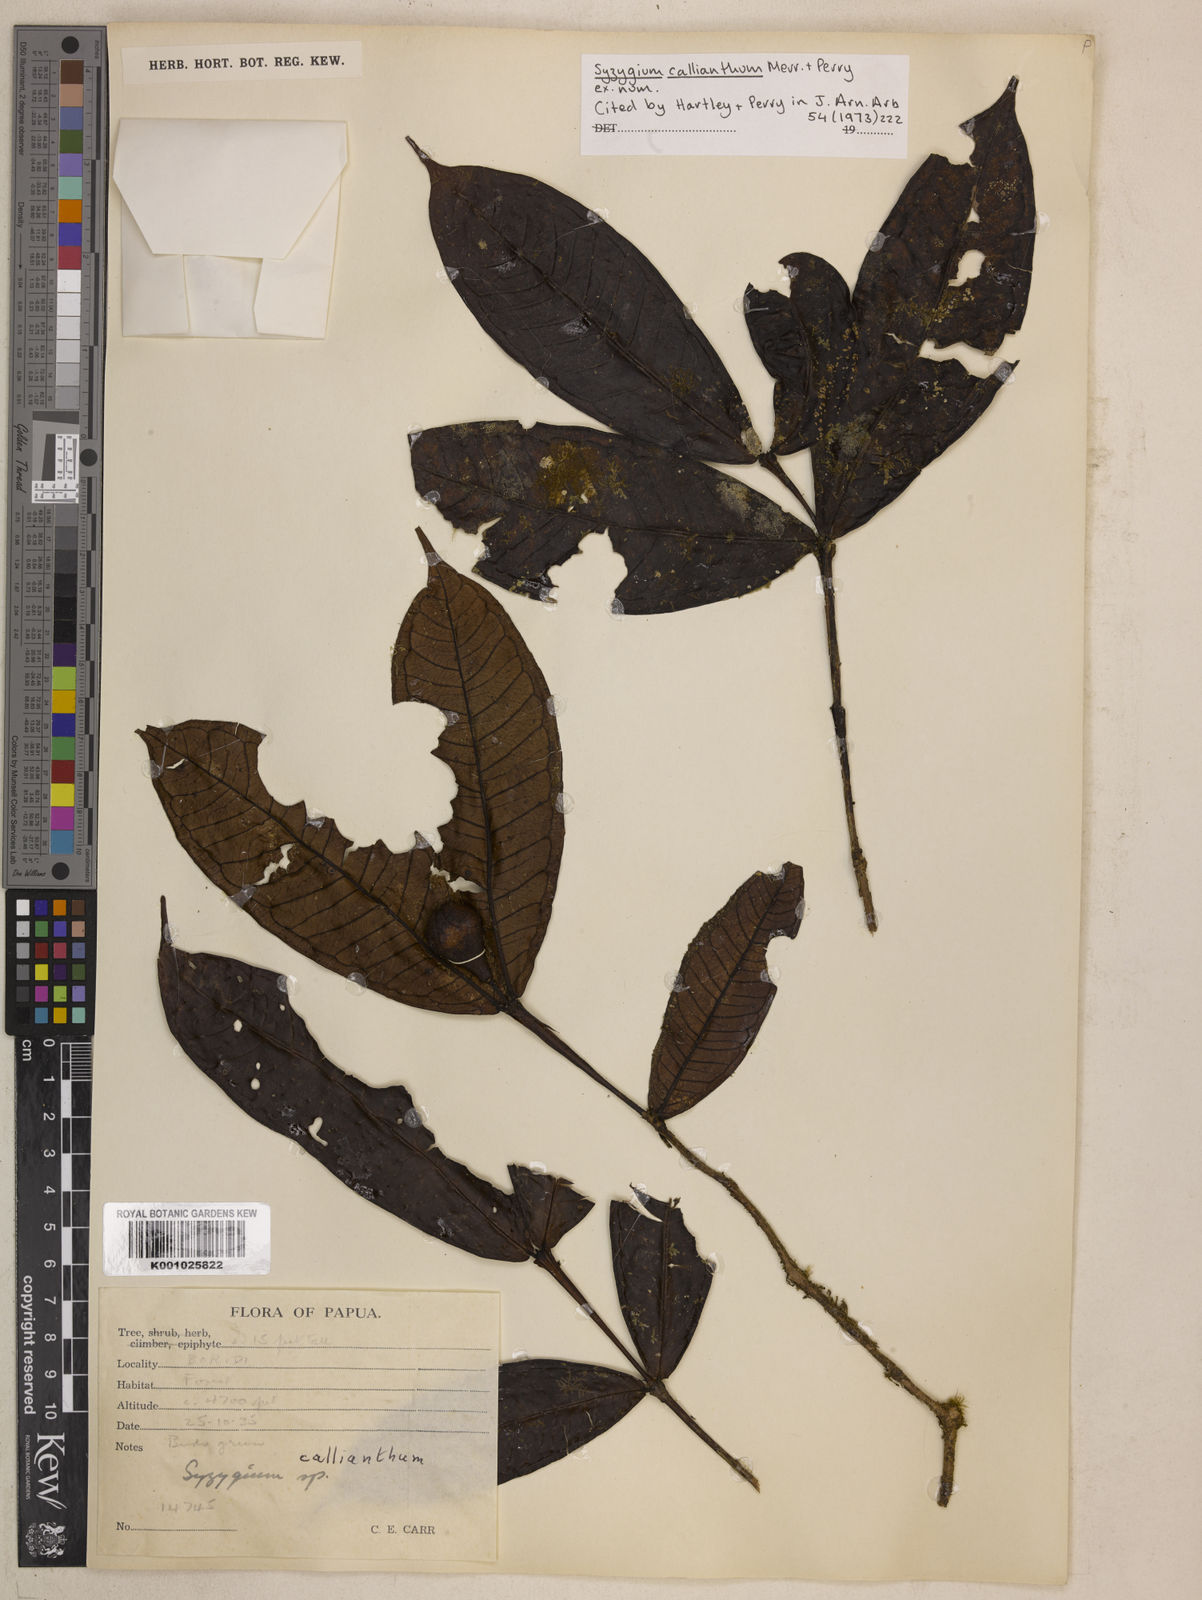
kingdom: Plantae
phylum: Tracheophyta
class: Magnoliopsida
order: Myrtales
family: Myrtaceae
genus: Syzygium
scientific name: Syzygium callianthum
